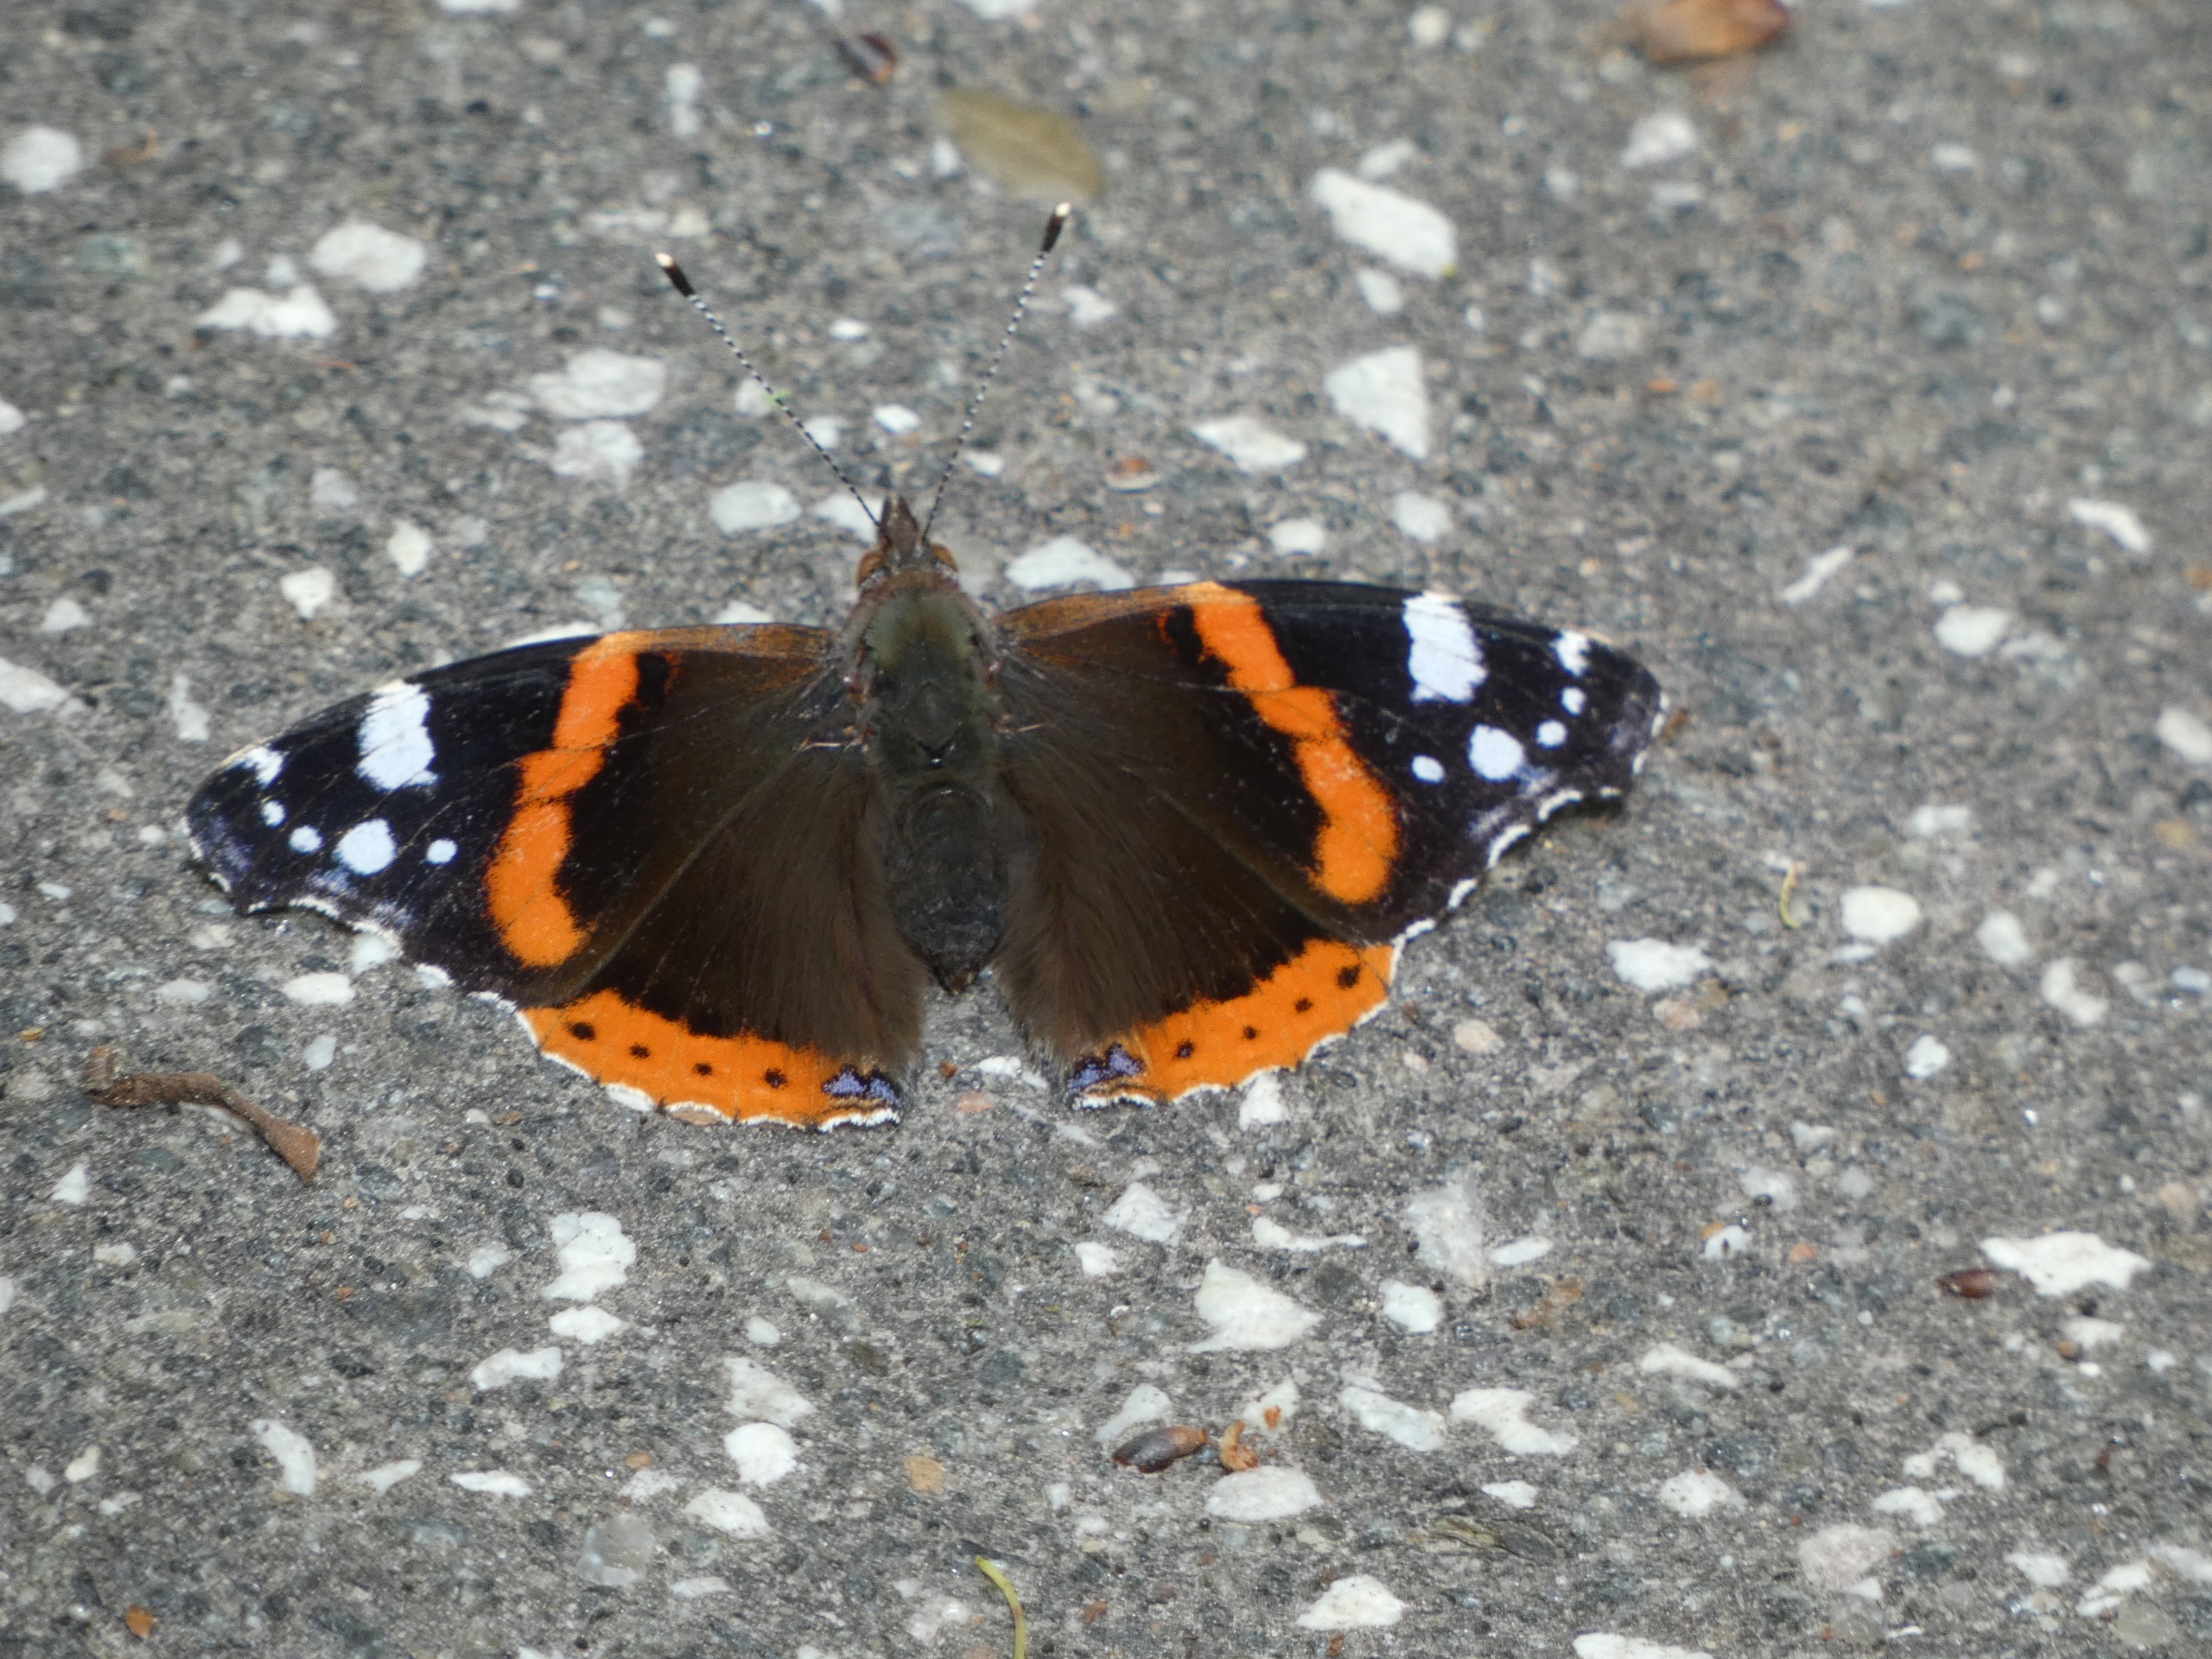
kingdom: Animalia
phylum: Arthropoda
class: Insecta
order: Lepidoptera
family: Nymphalidae
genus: Vanessa
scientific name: Vanessa atalanta
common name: Admiral
